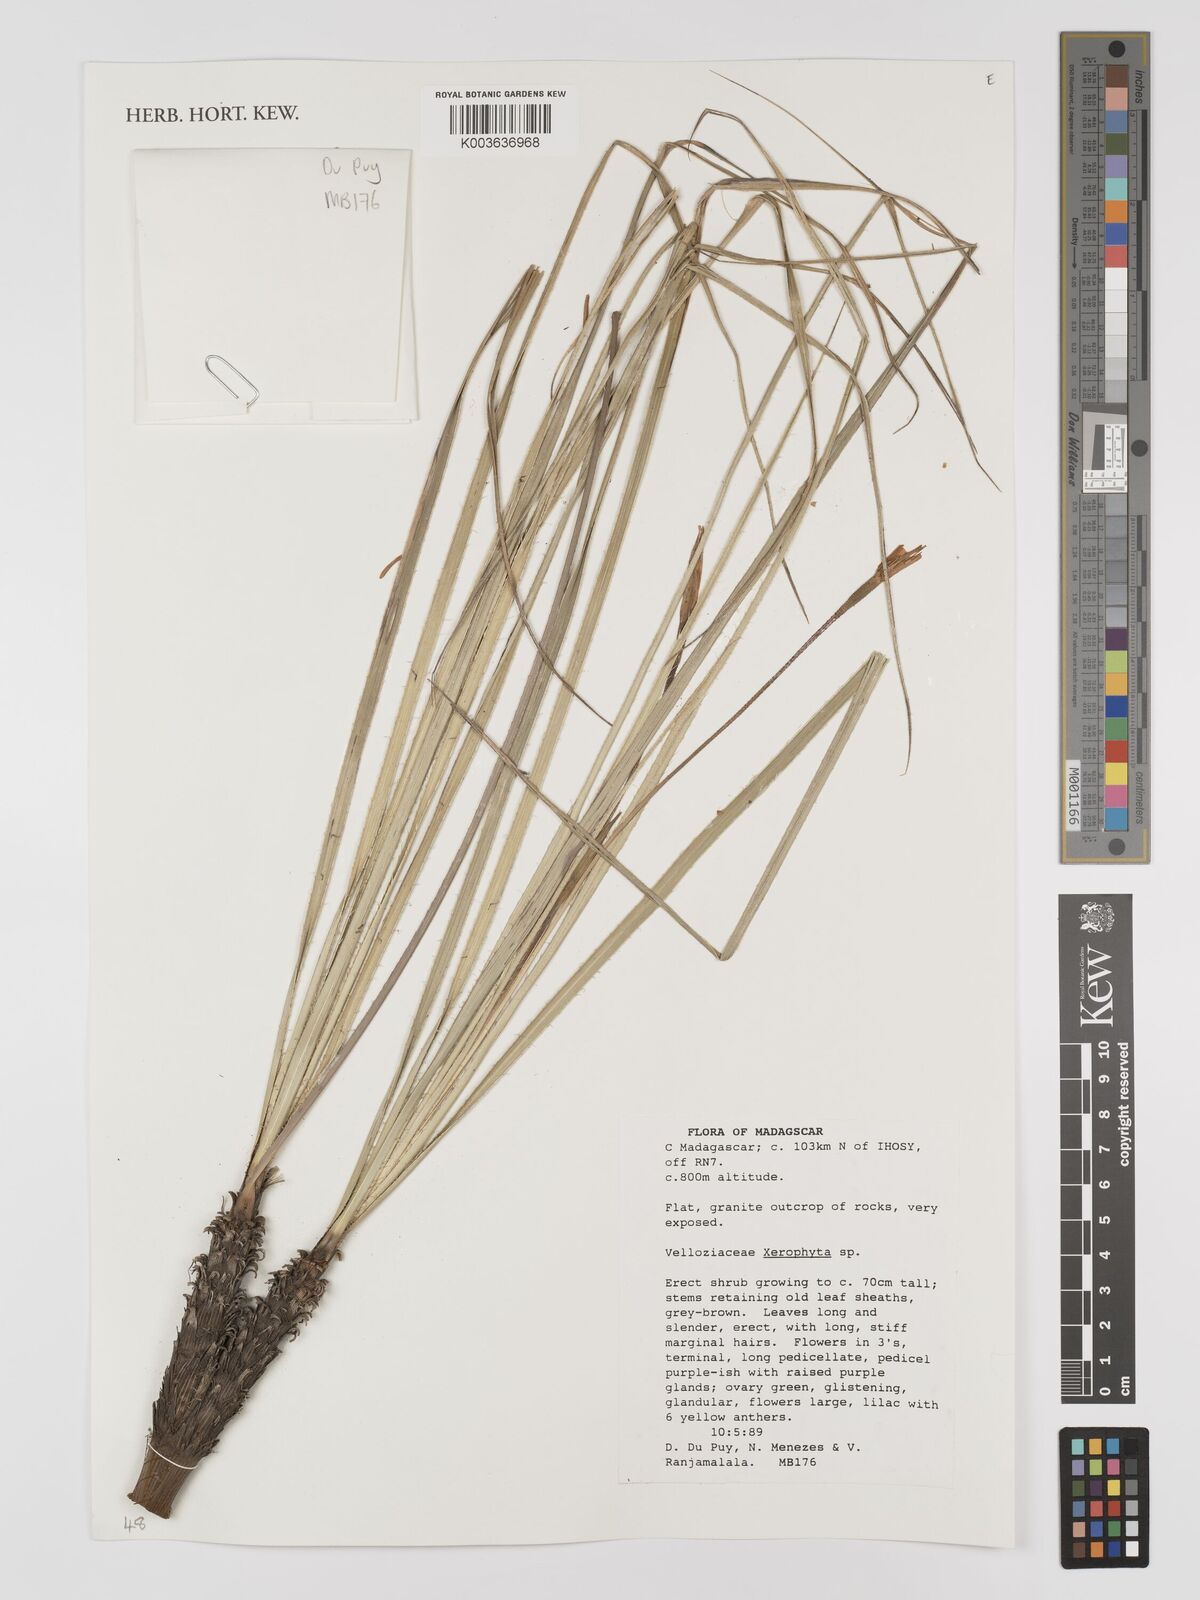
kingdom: Plantae
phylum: Tracheophyta
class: Liliopsida
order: Pandanales
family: Velloziaceae
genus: Xerophyta
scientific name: Xerophyta
